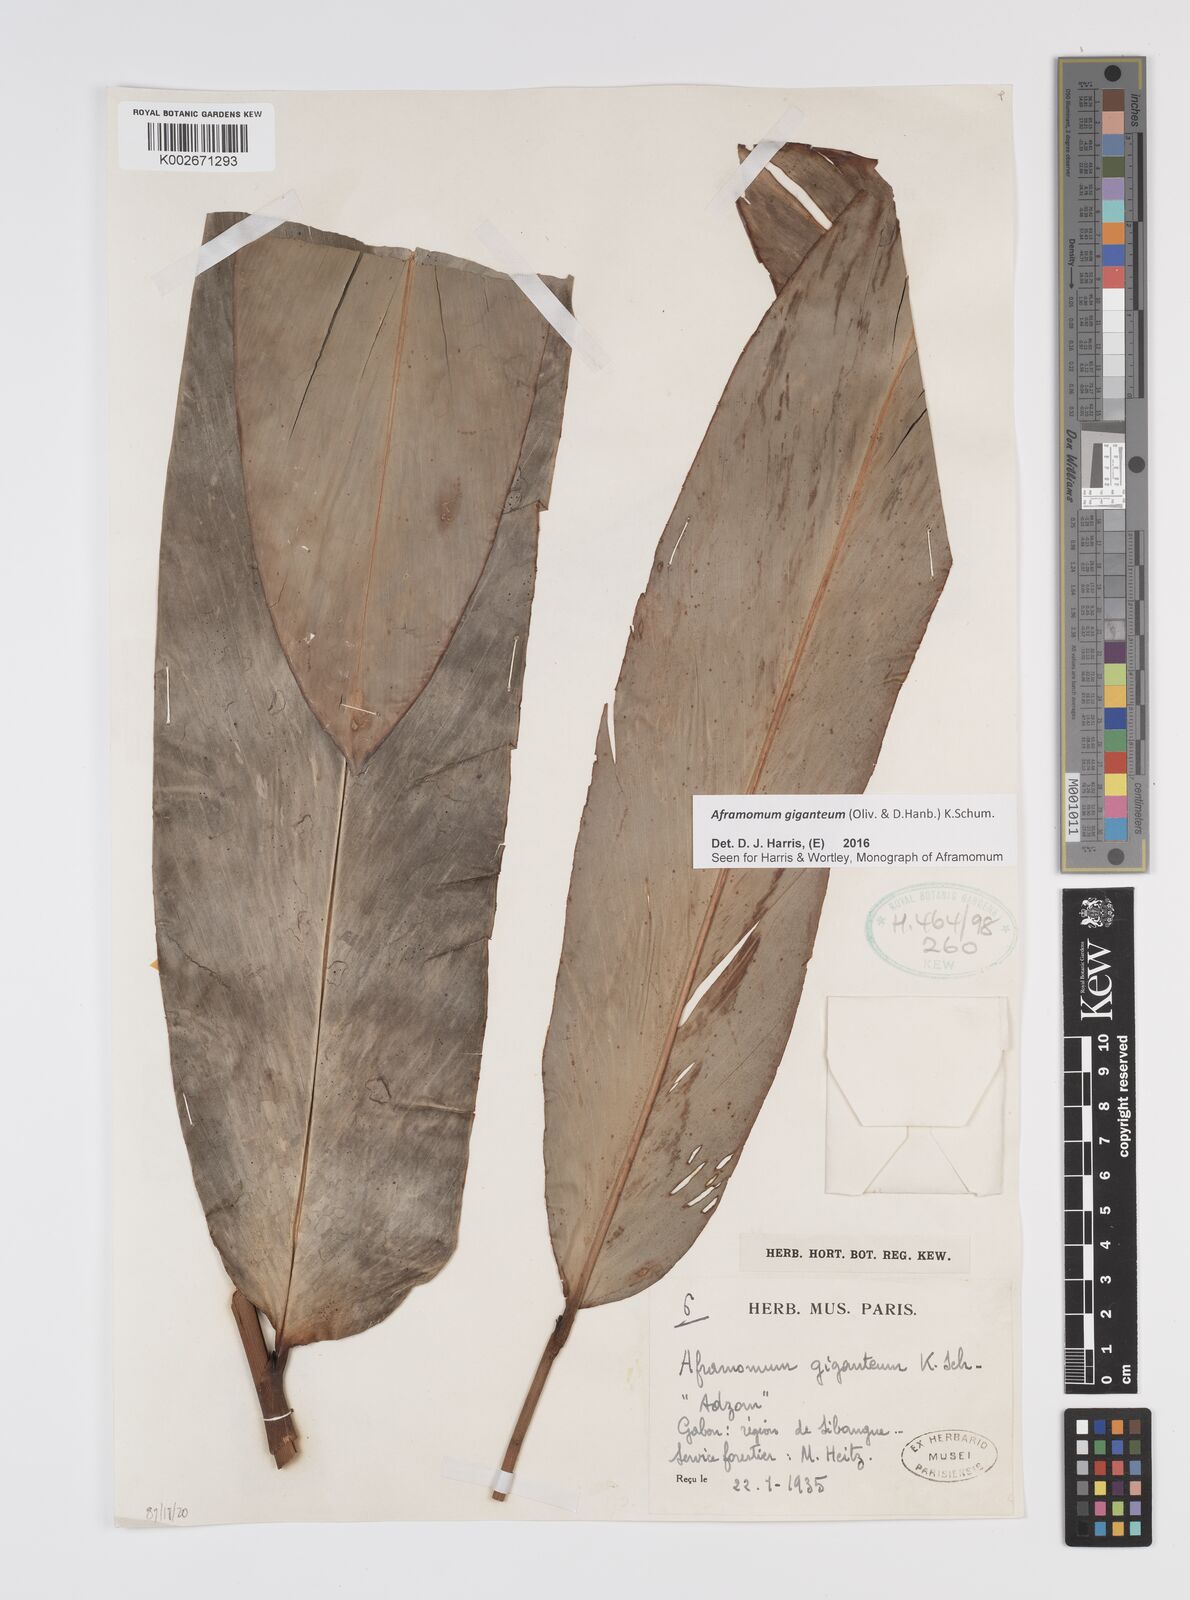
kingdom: Plantae
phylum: Tracheophyta
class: Liliopsida
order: Zingiberales
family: Zingiberaceae
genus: Aframomum
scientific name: Aframomum giganteum
